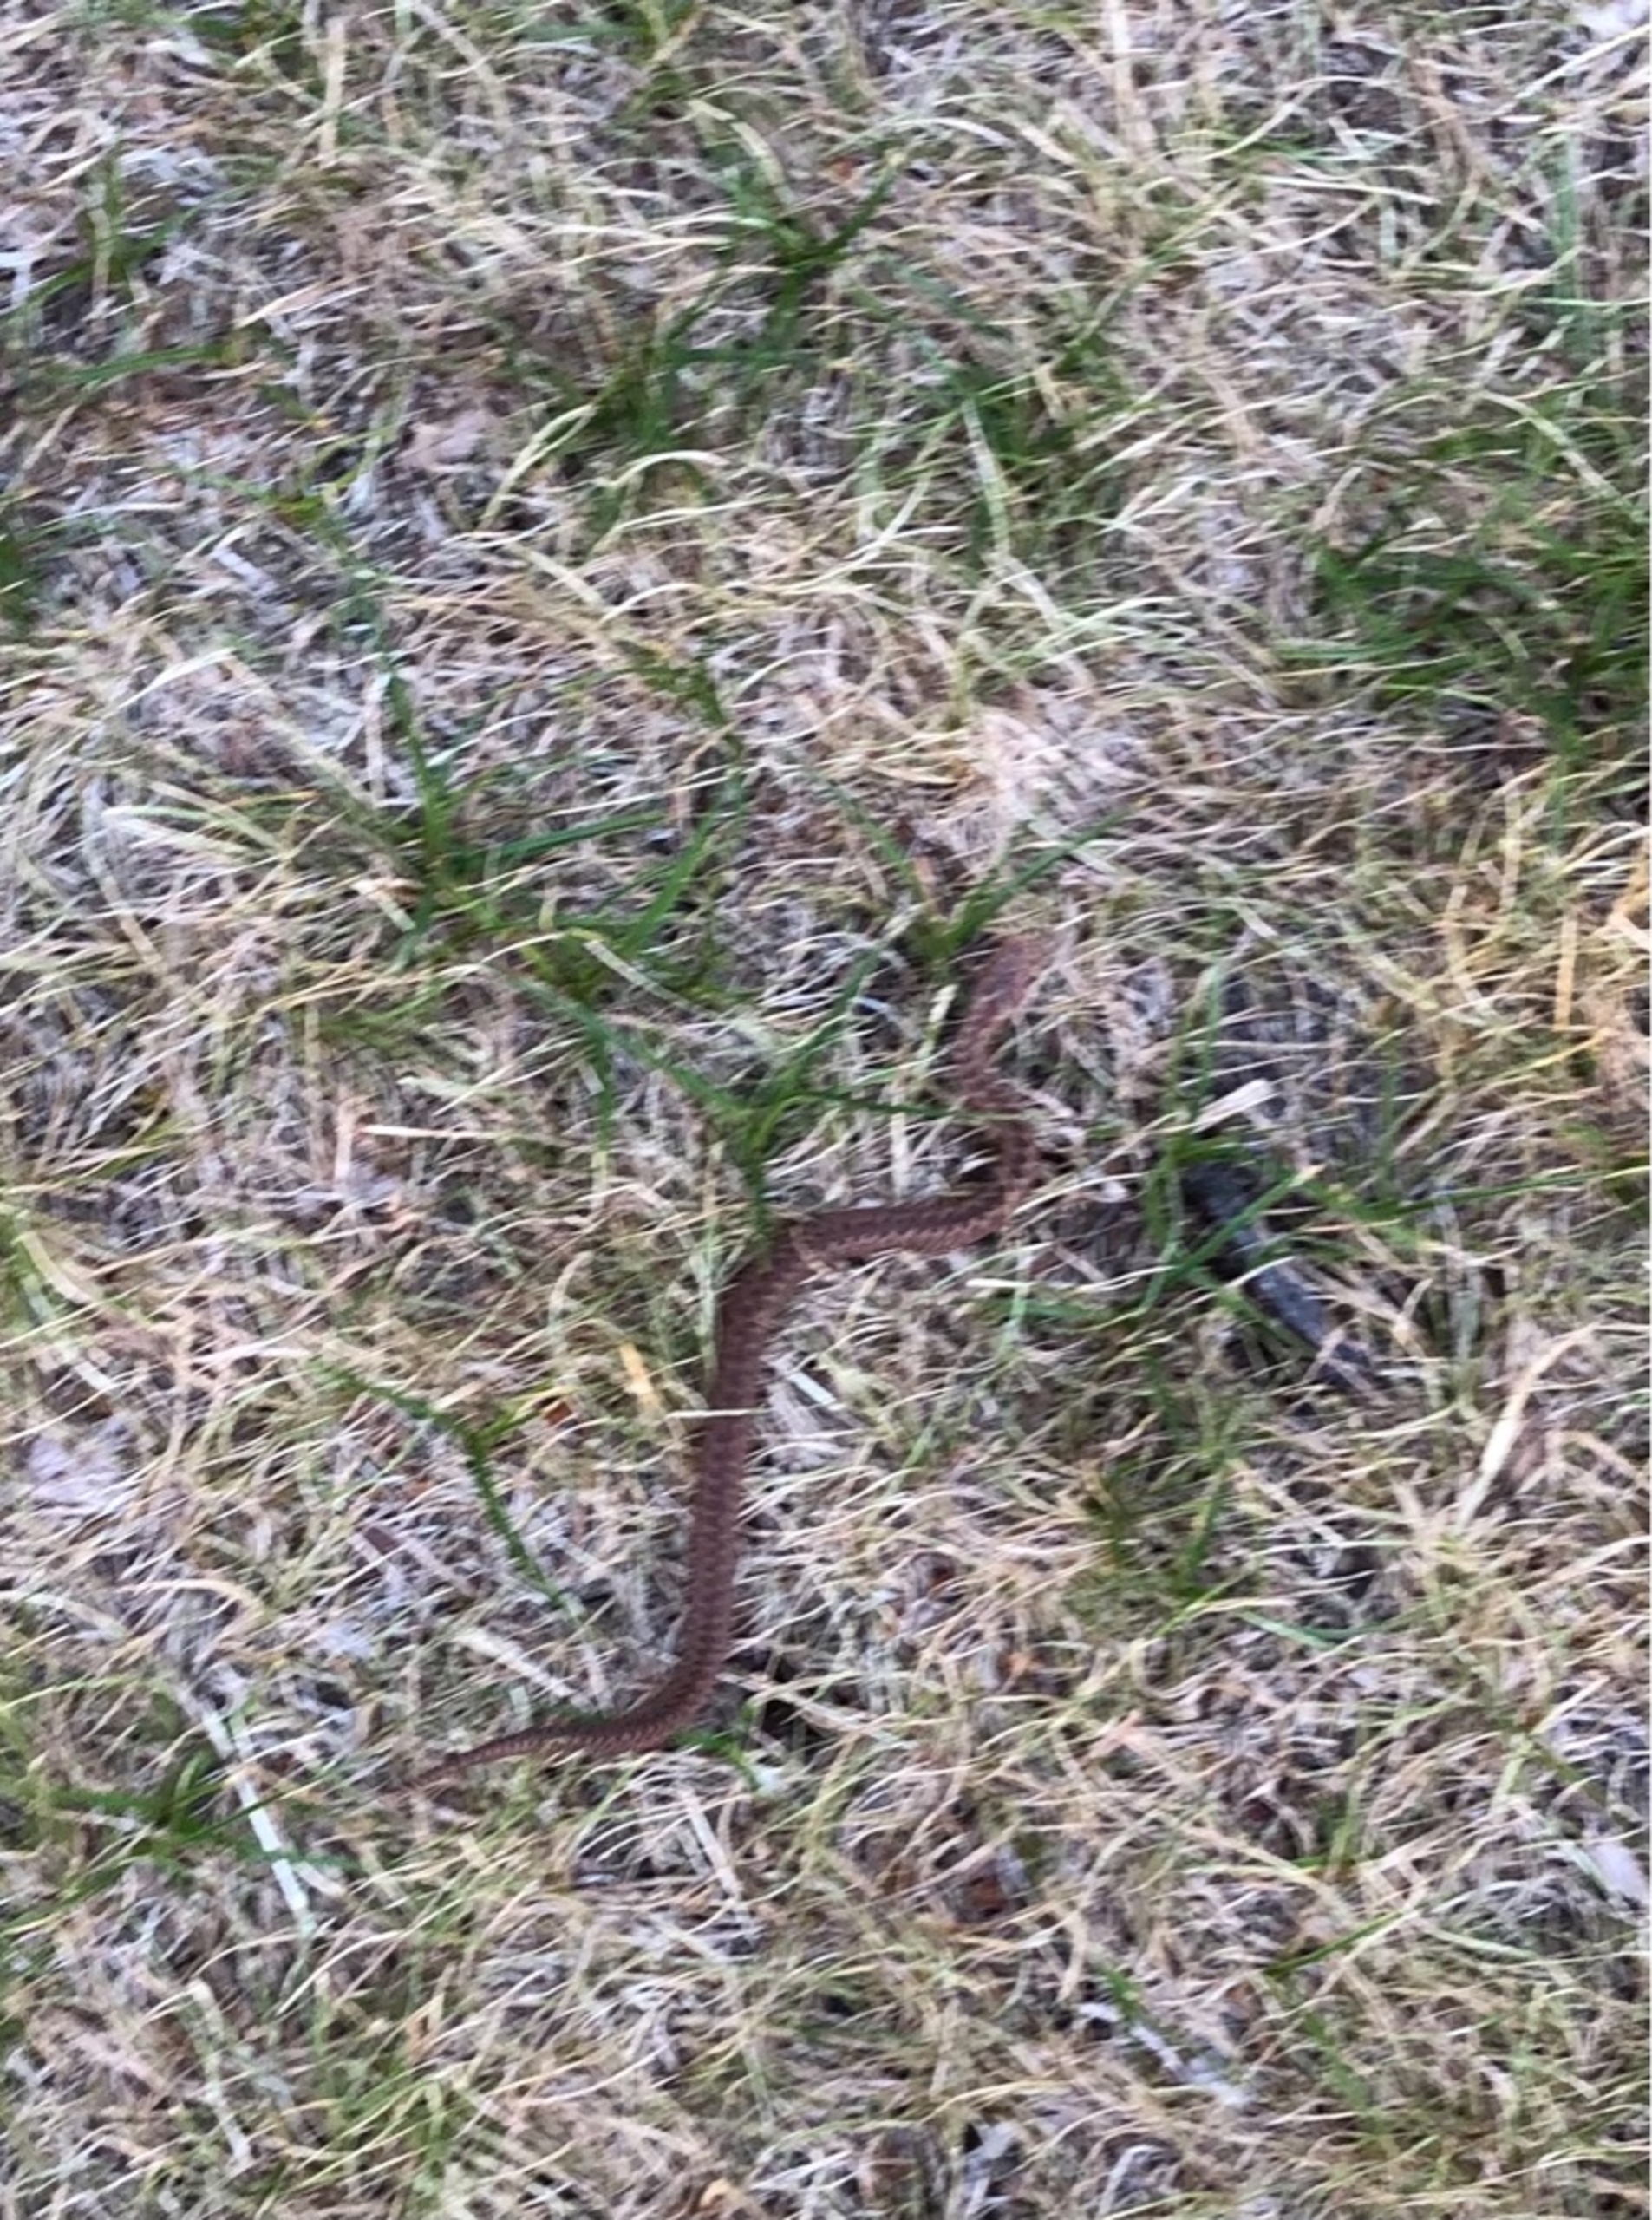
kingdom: Animalia
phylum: Chordata
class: Squamata
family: Viperidae
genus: Vipera
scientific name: Vipera berus
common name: Hugorm
